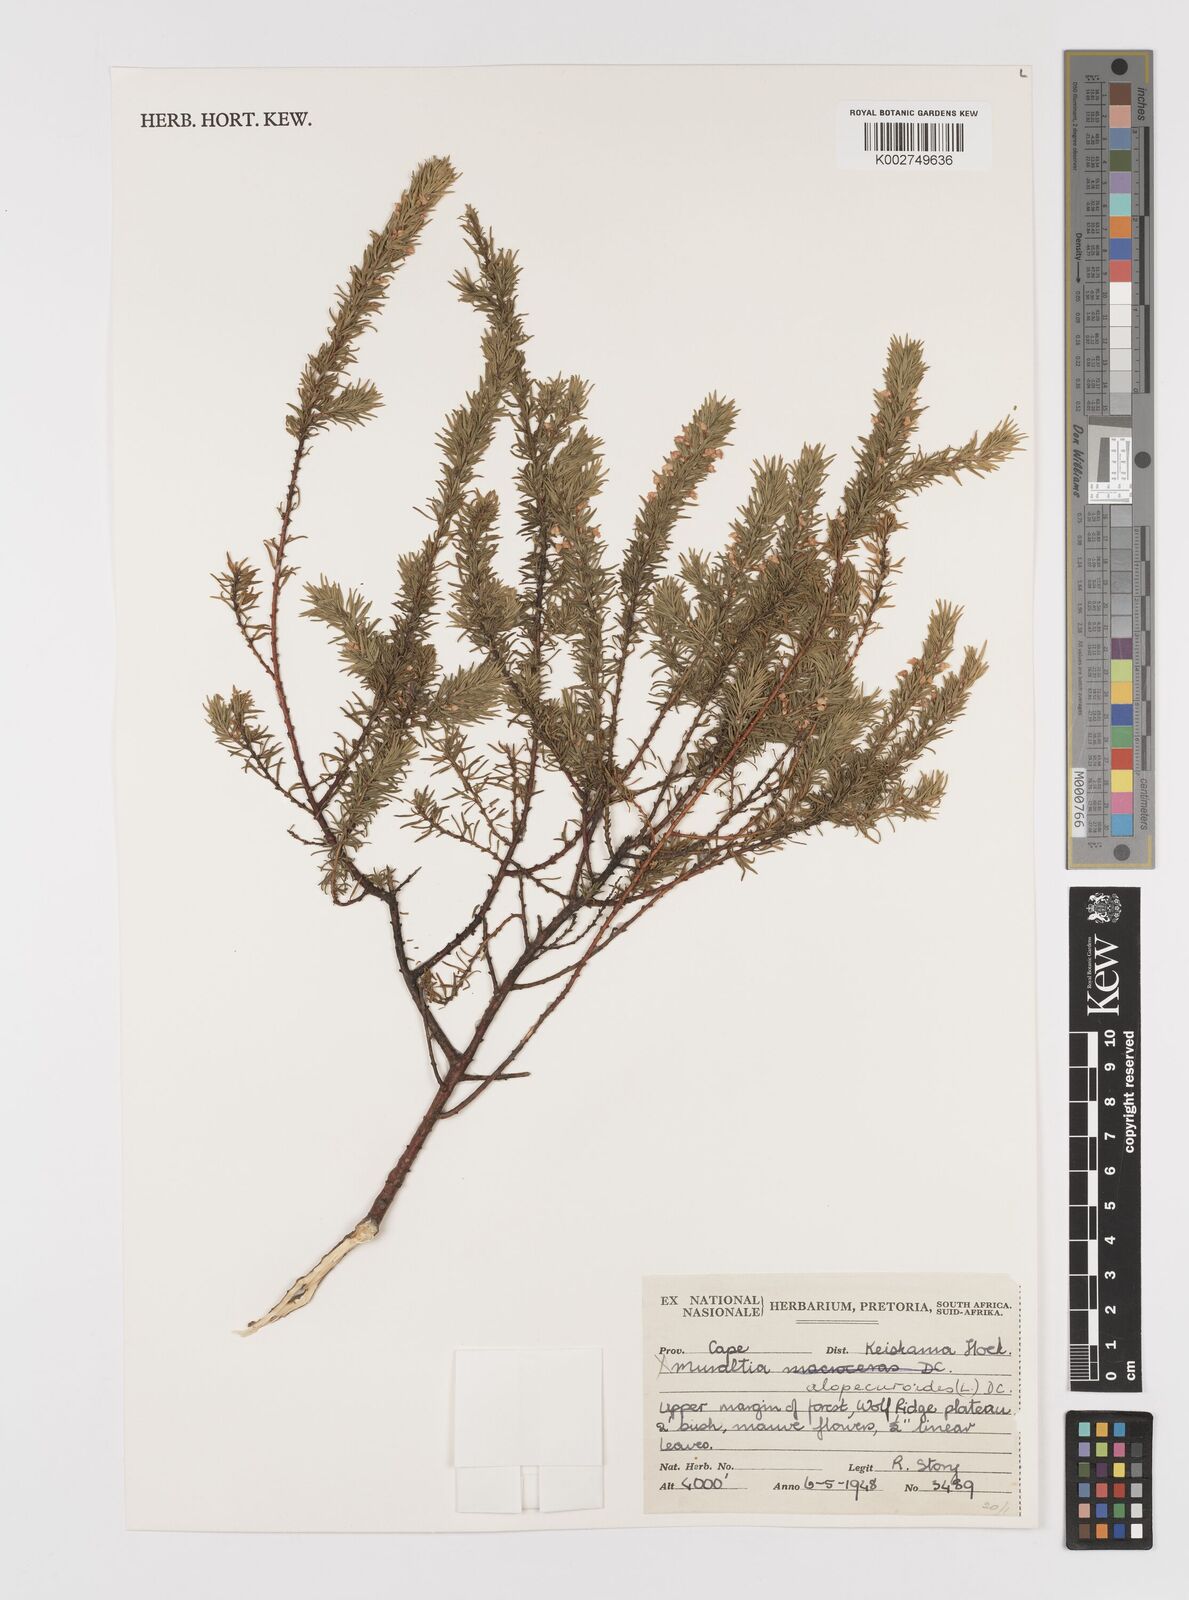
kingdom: Plantae
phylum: Tracheophyta
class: Magnoliopsida
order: Fabales
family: Polygalaceae
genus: Muraltia
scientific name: Muraltia alopecuroides
